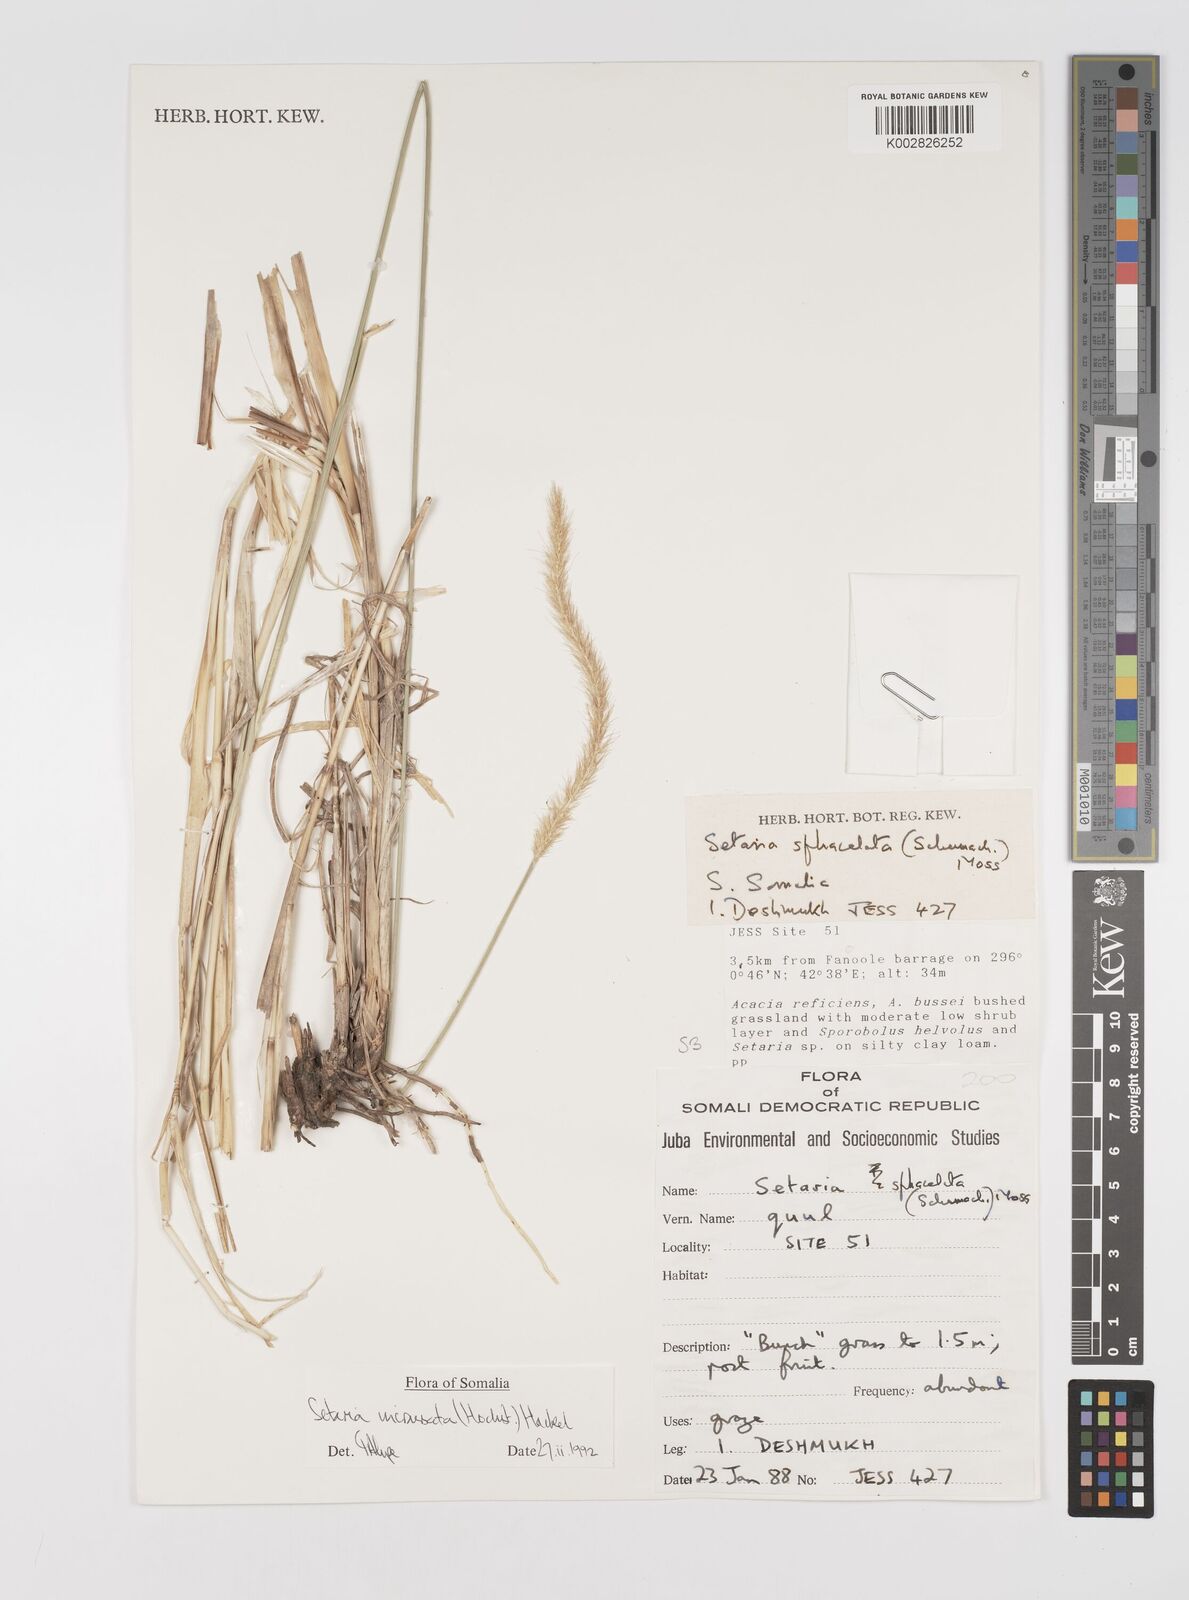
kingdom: Plantae
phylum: Tracheophyta
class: Liliopsida
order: Poales
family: Poaceae
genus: Setaria
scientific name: Setaria incrassata
